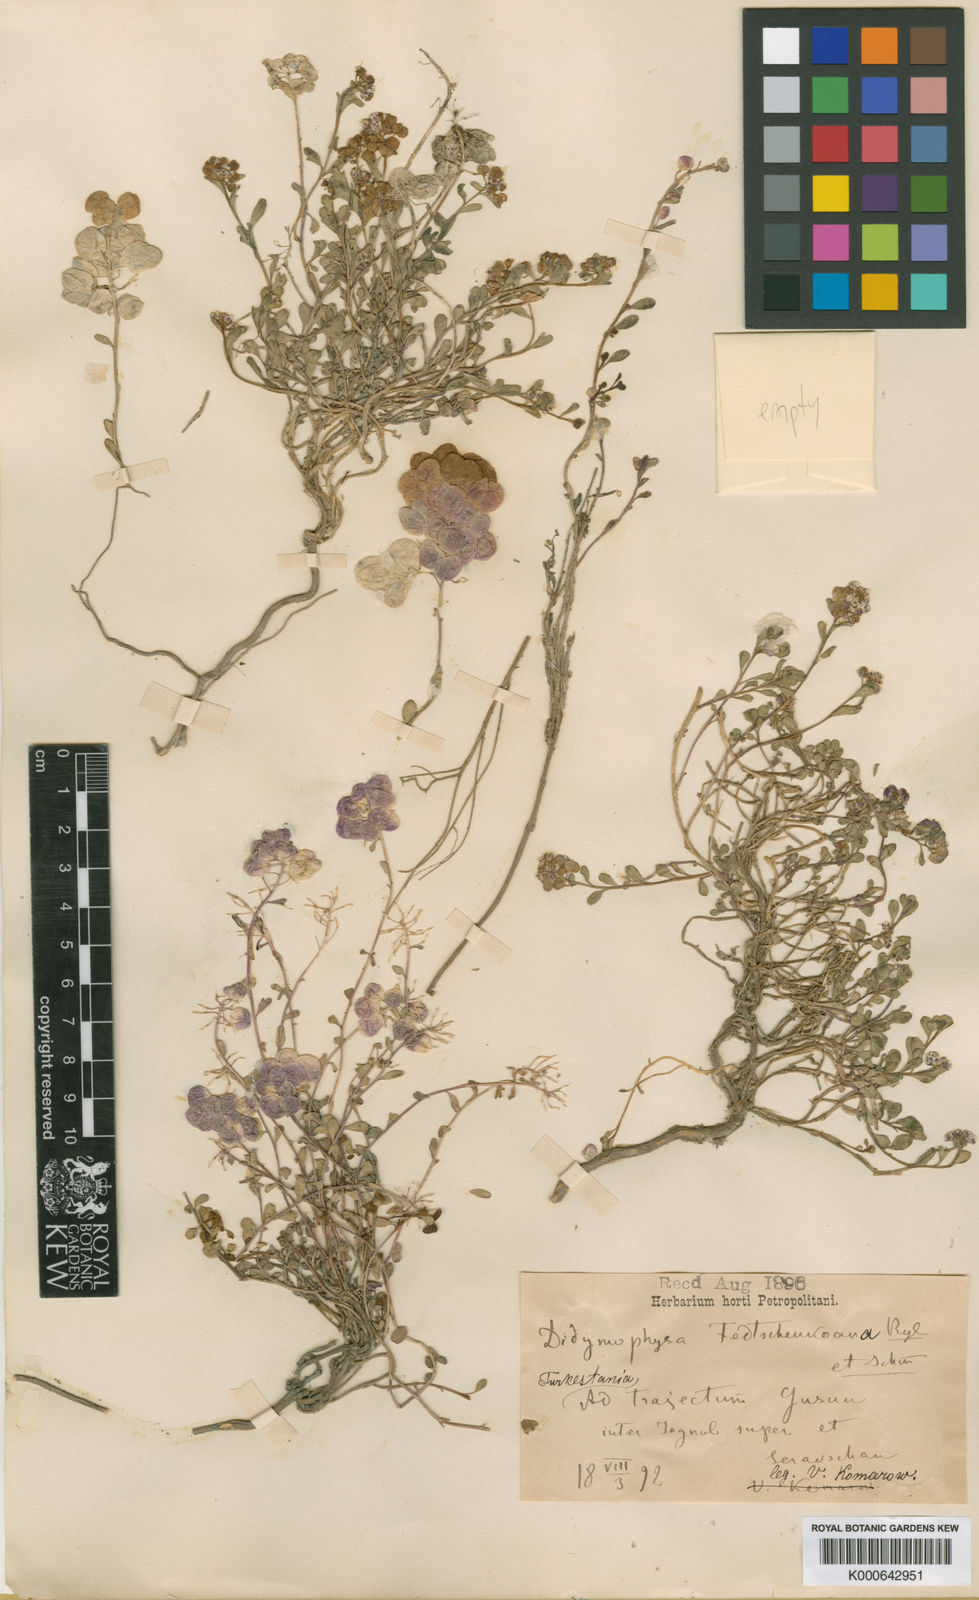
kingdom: Plantae
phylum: Tracheophyta
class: Magnoliopsida
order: Brassicales
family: Brassicaceae
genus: Didymophysa
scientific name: Didymophysa fedtschenkoana
